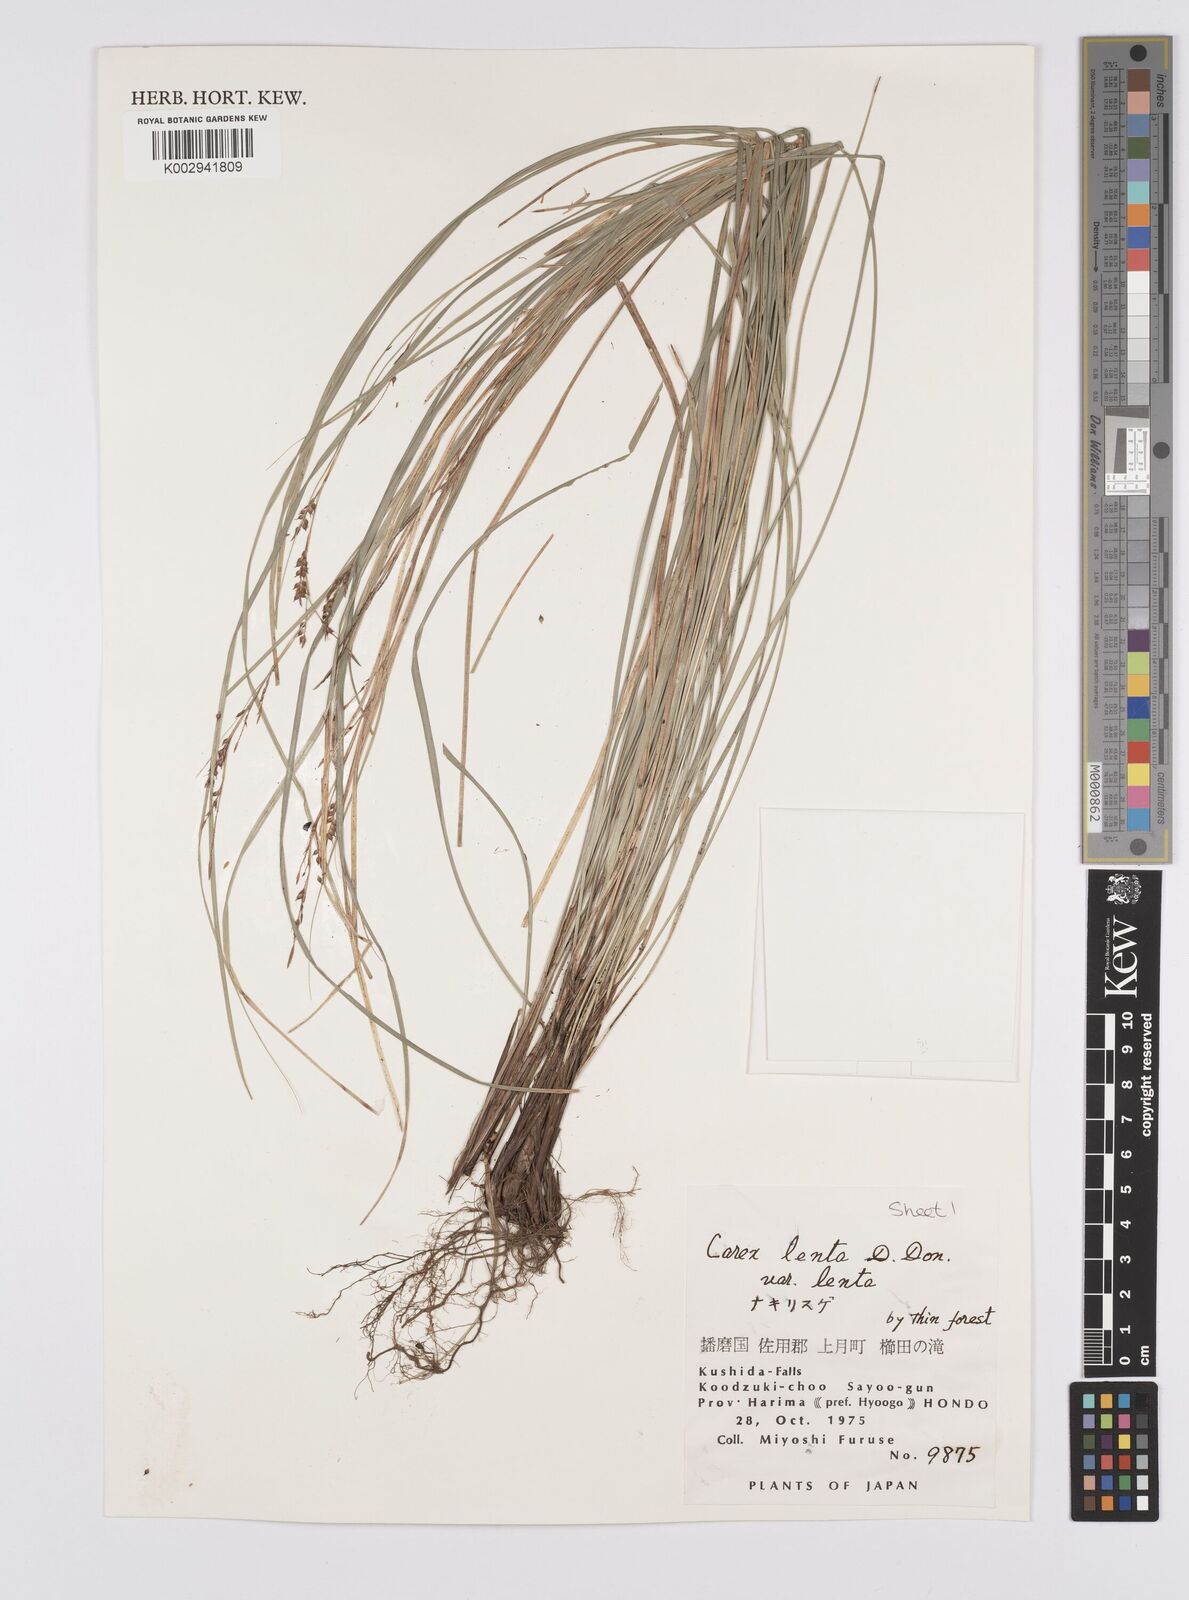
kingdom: Plantae
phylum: Tracheophyta
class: Liliopsida
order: Poales
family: Cyperaceae
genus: Carex
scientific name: Carex brunnea
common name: Greater brown sedge
